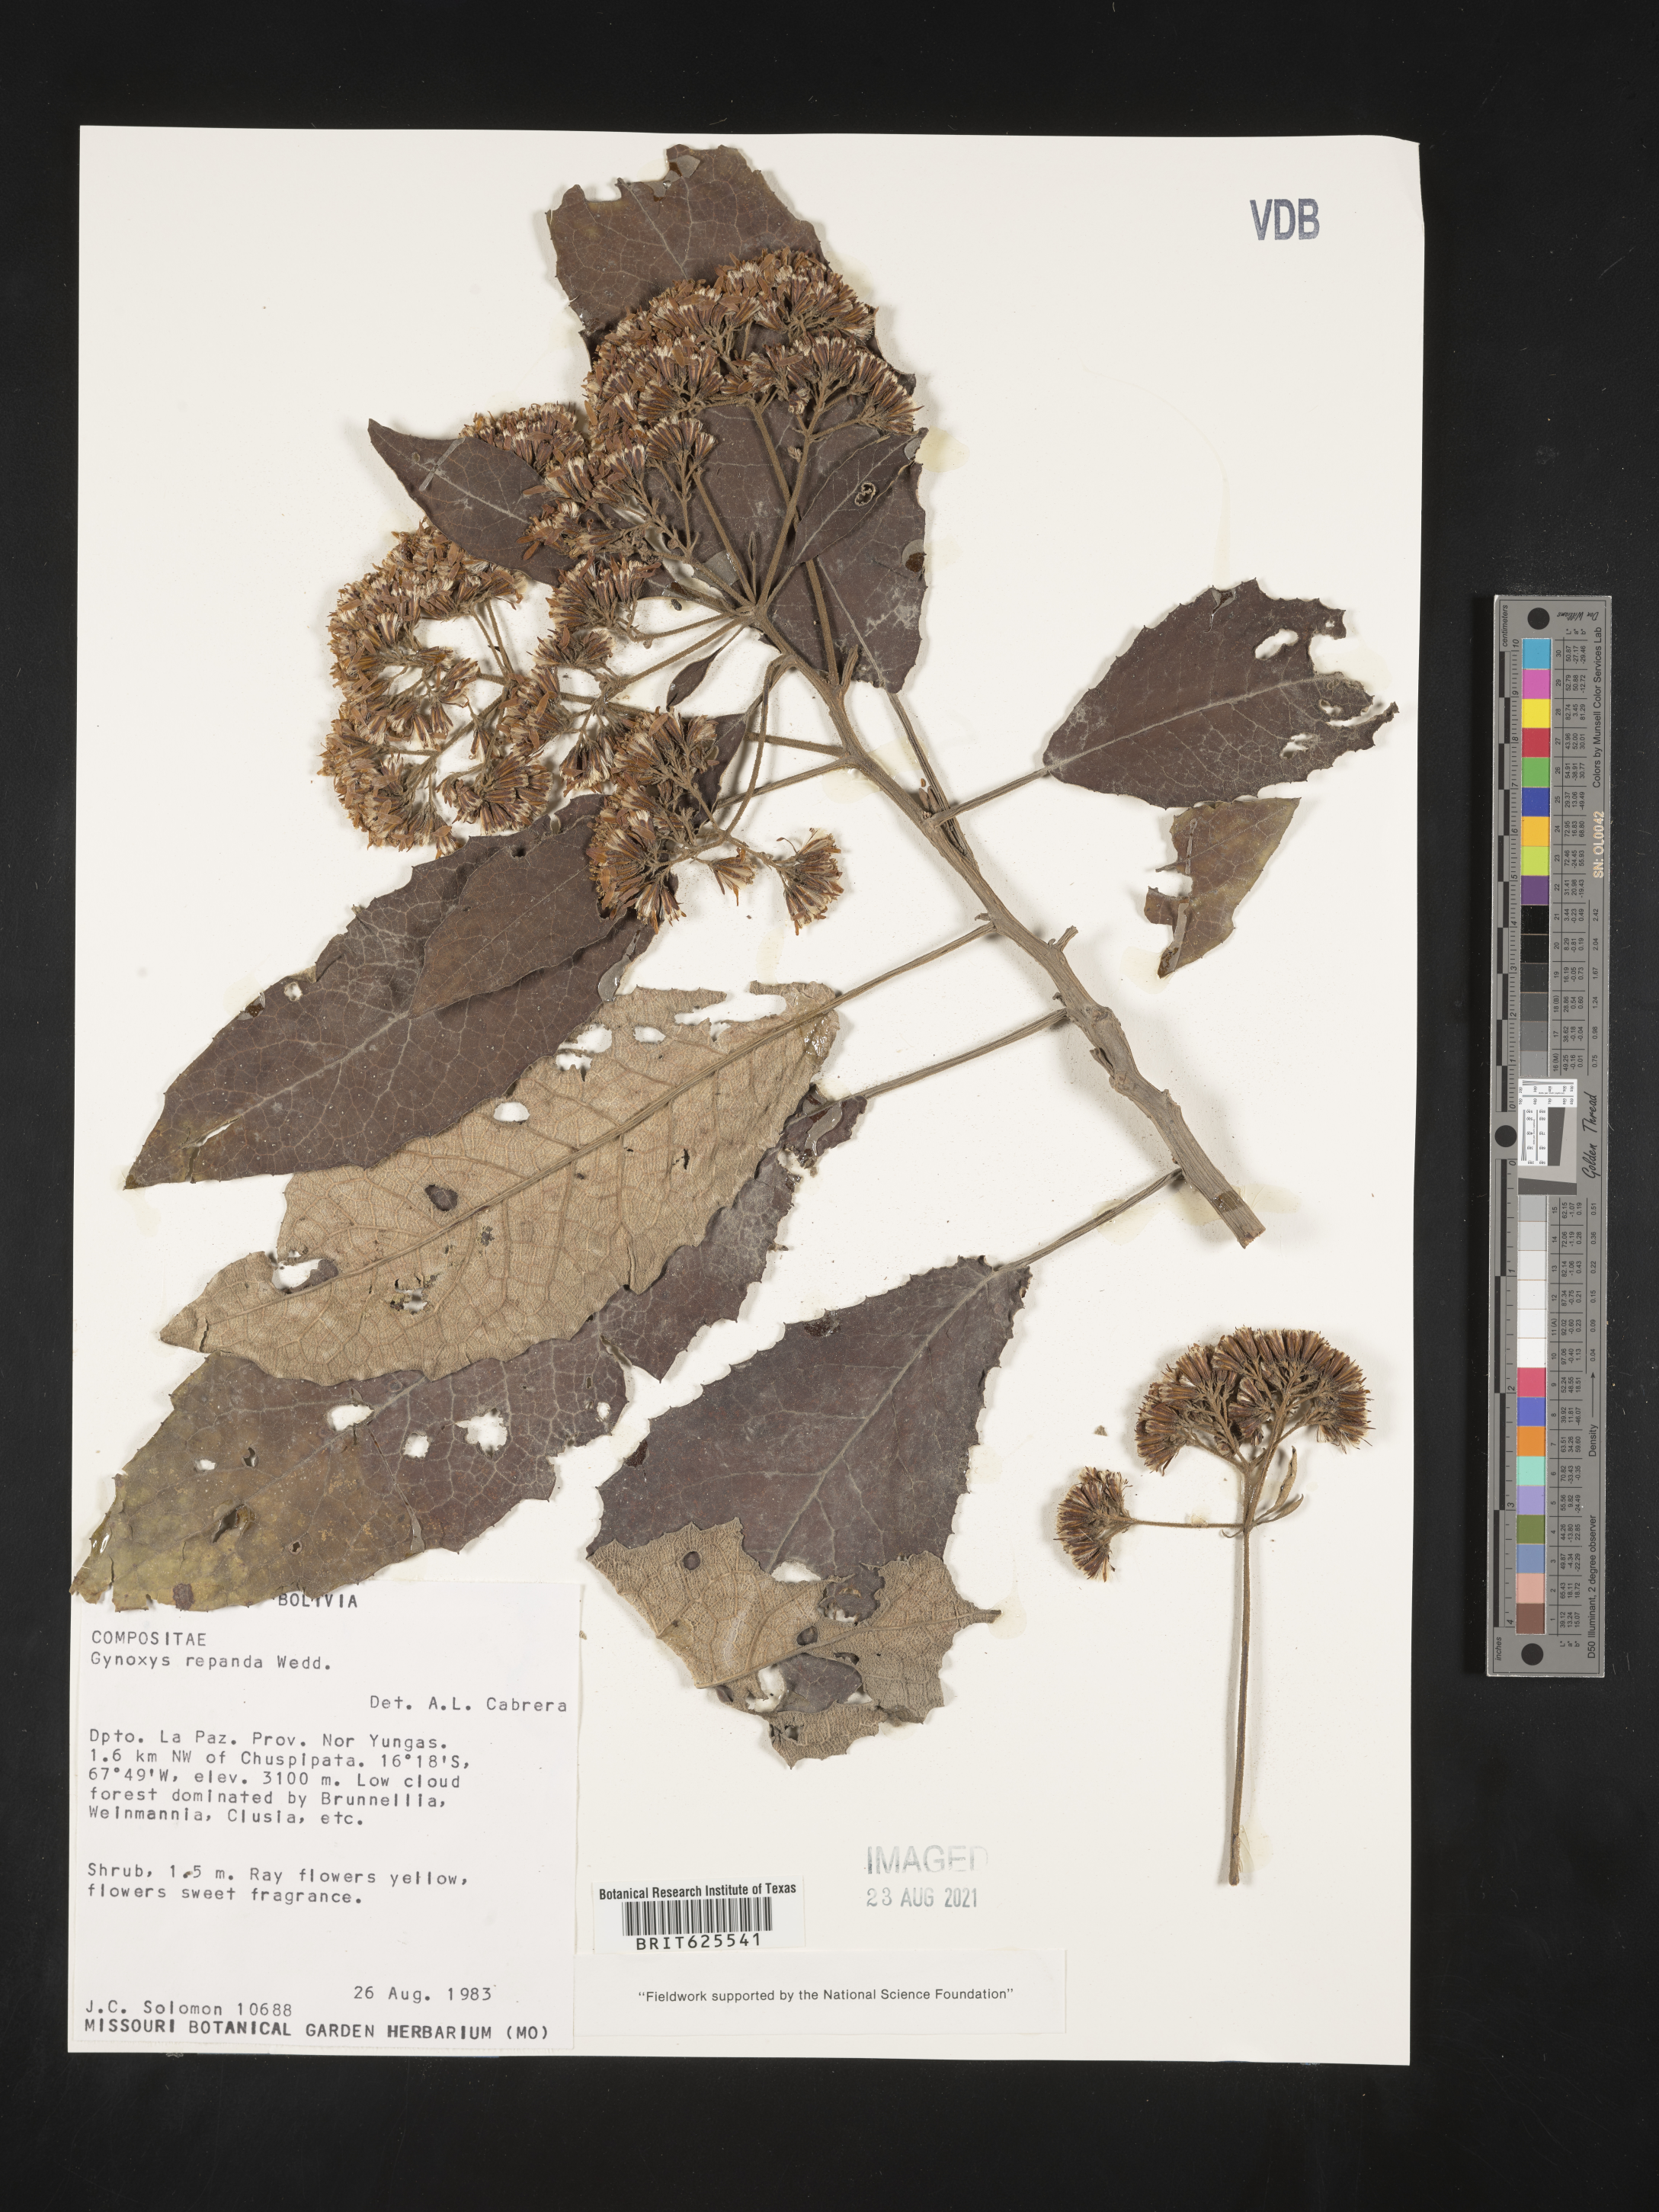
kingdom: Plantae
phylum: Tracheophyta
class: Magnoliopsida
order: Asterales
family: Asteraceae
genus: Nordenstamia
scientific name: Nordenstamia repanda
